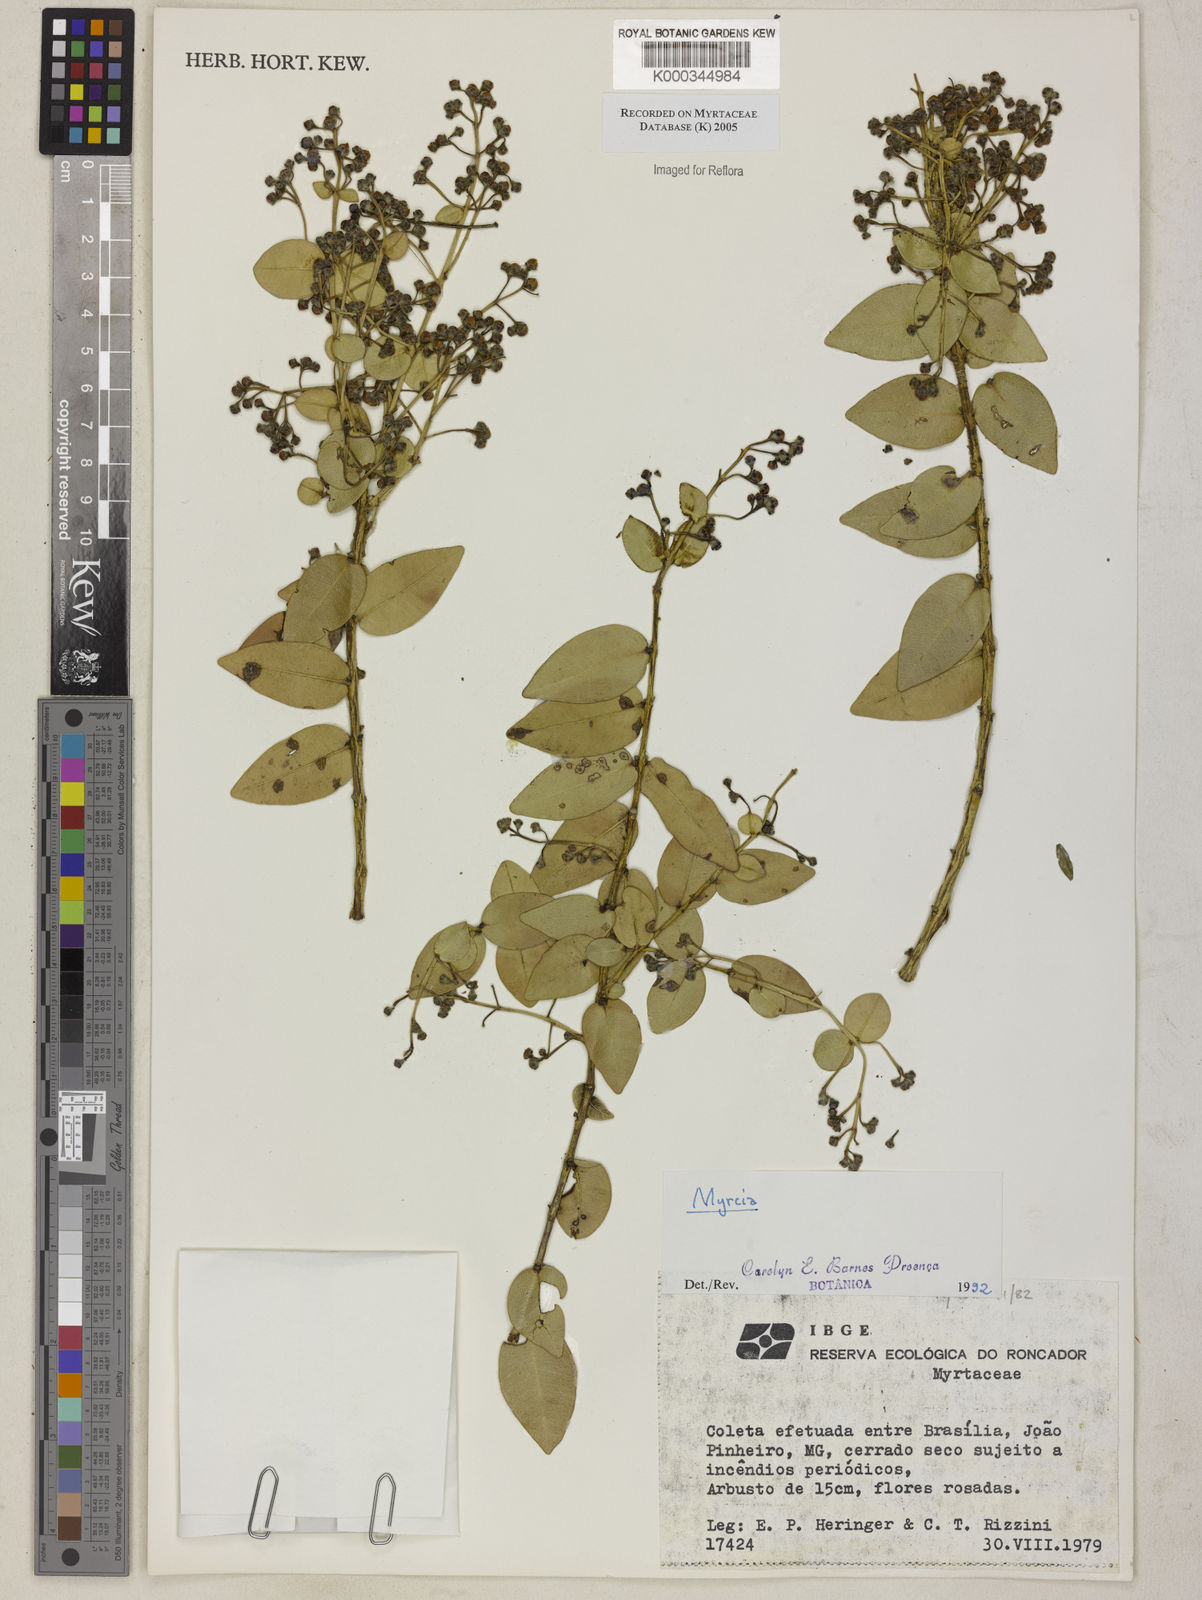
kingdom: Plantae
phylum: Tracheophyta
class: Magnoliopsida
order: Myrtales
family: Myrtaceae
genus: Myrcia
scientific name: Myrcia
